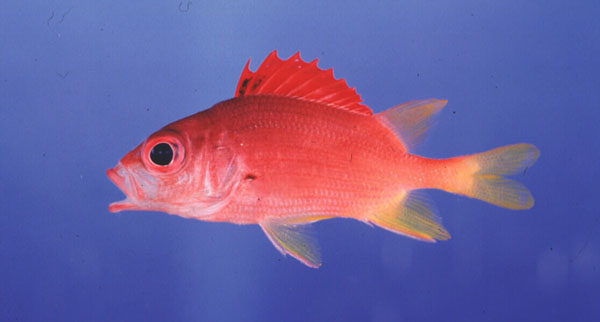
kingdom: Animalia
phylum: Chordata
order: Beryciformes
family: Holocentridae
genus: Sargocentron
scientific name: Sargocentron spiniferum
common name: Giant squirrelfish
